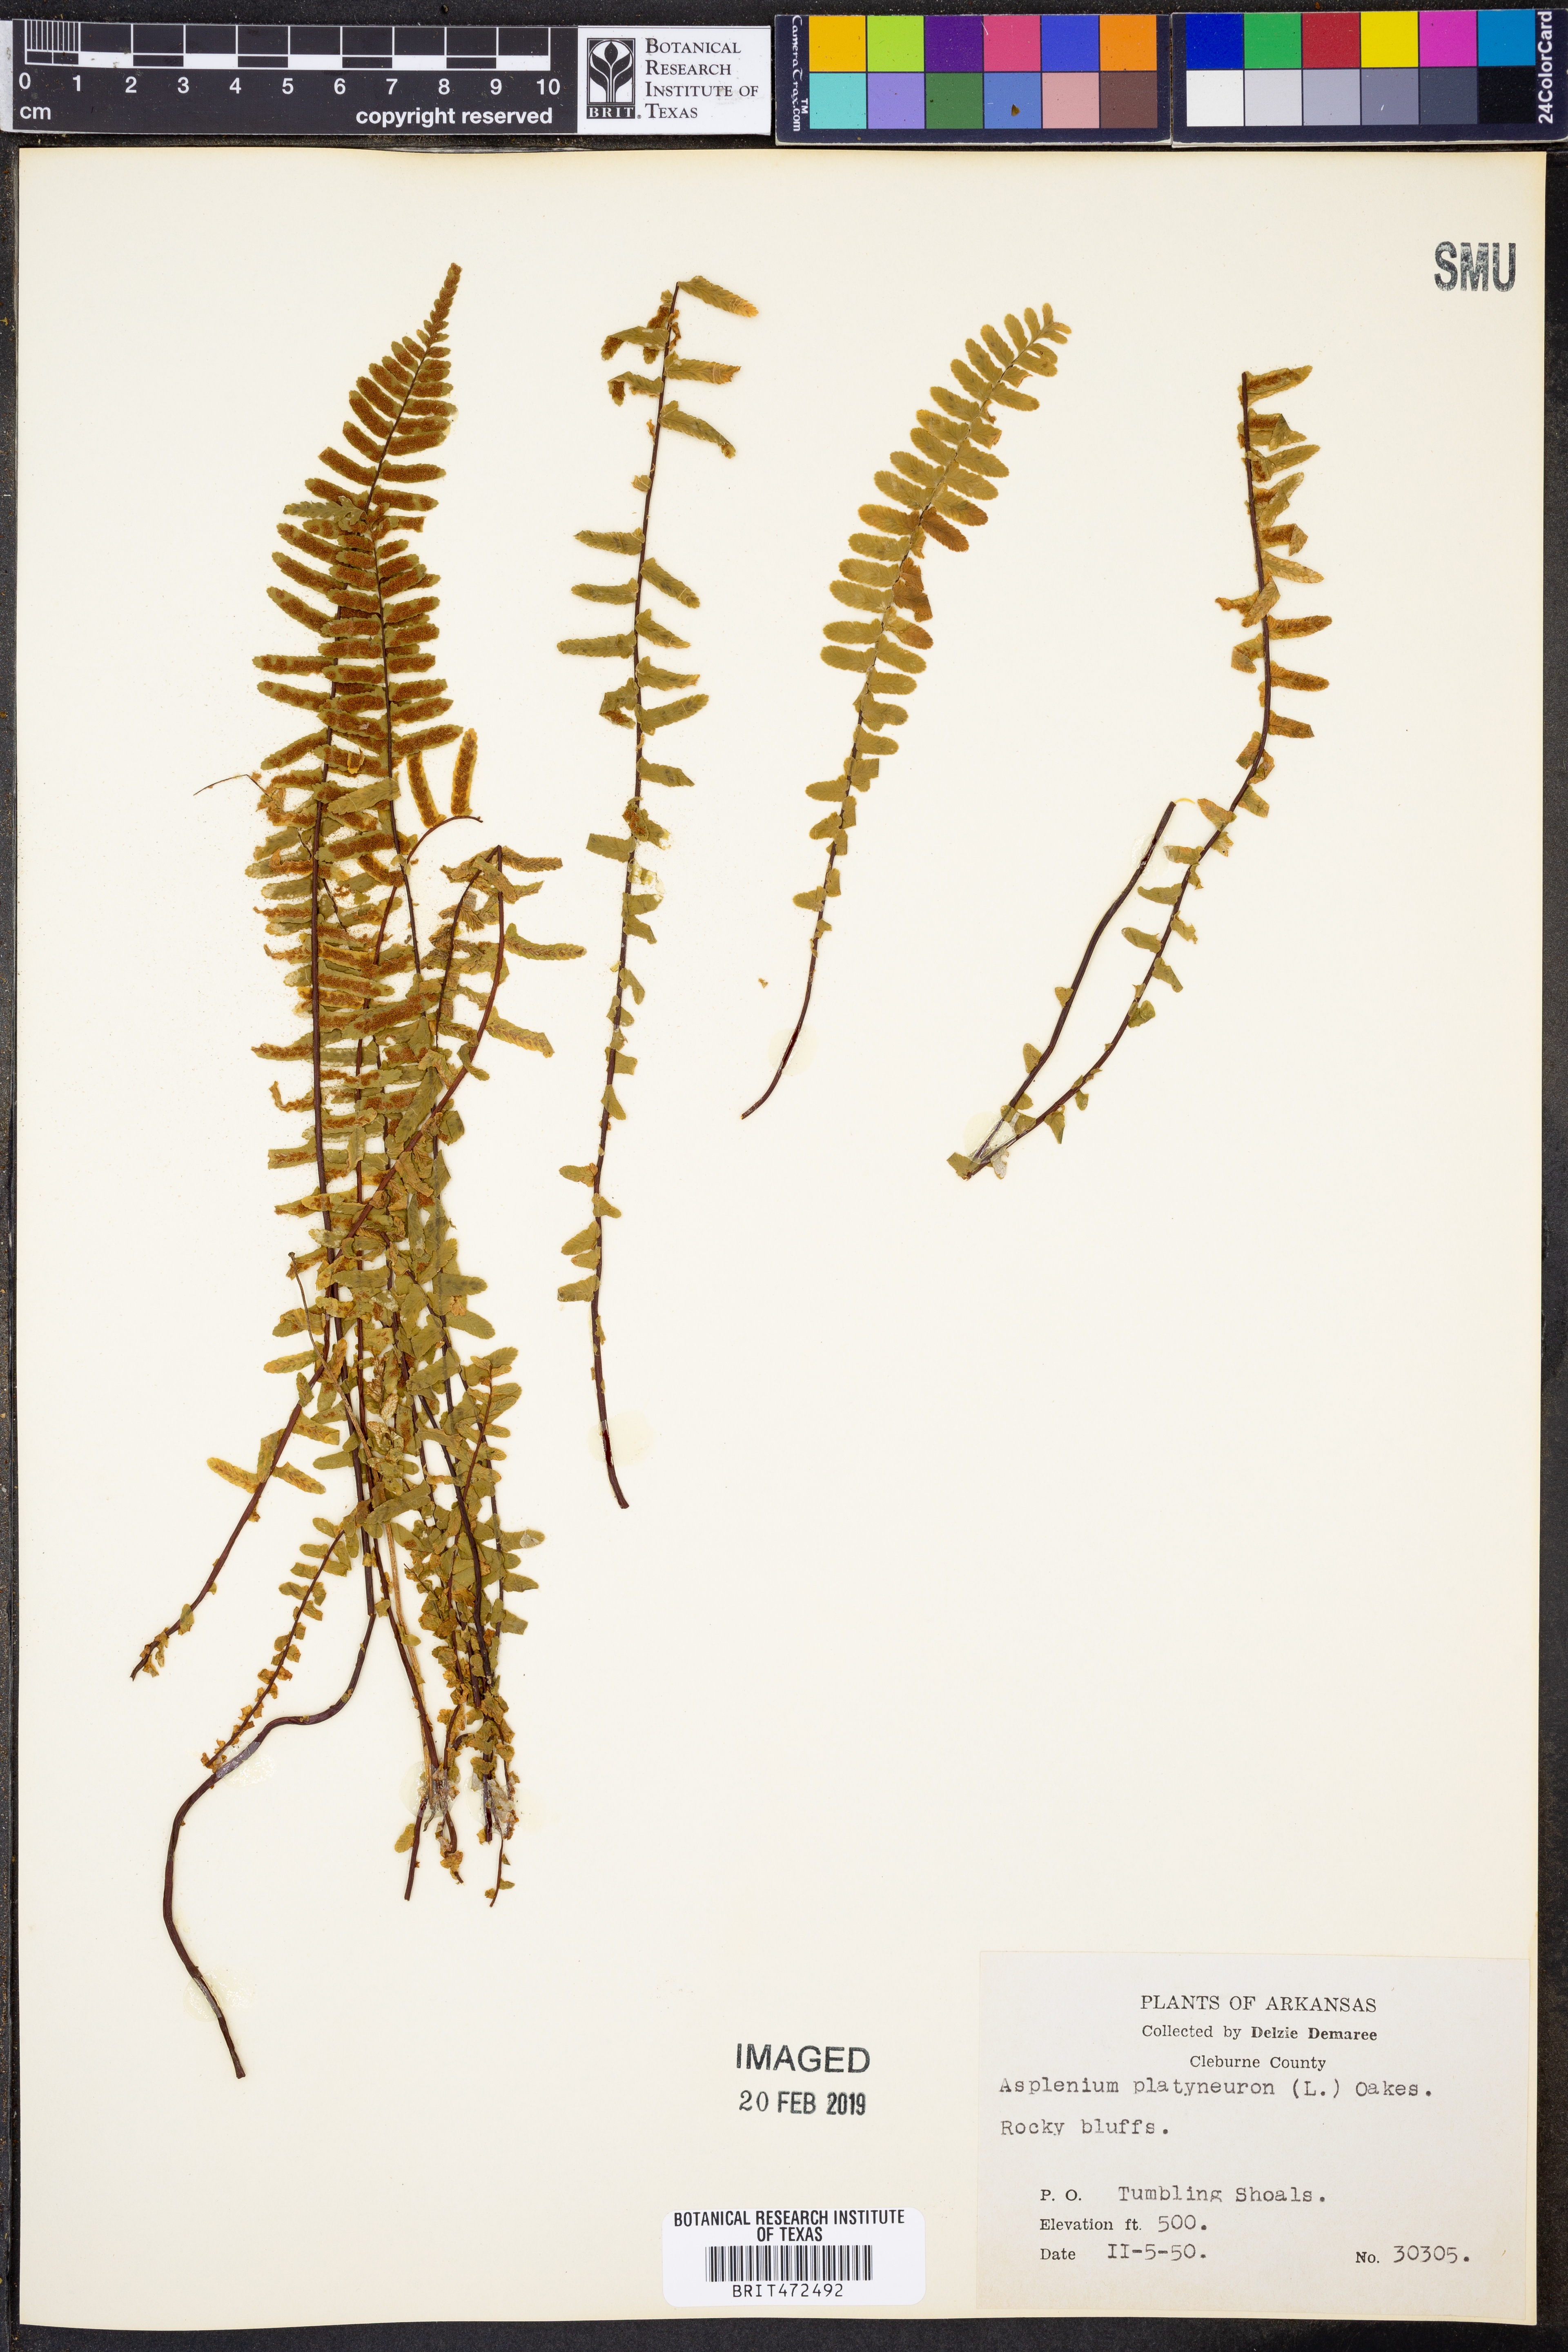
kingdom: Plantae
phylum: Tracheophyta
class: Polypodiopsida
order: Polypodiales
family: Aspleniaceae
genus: Asplenium
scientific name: Asplenium platyneuron
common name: Ebony spleenwort
